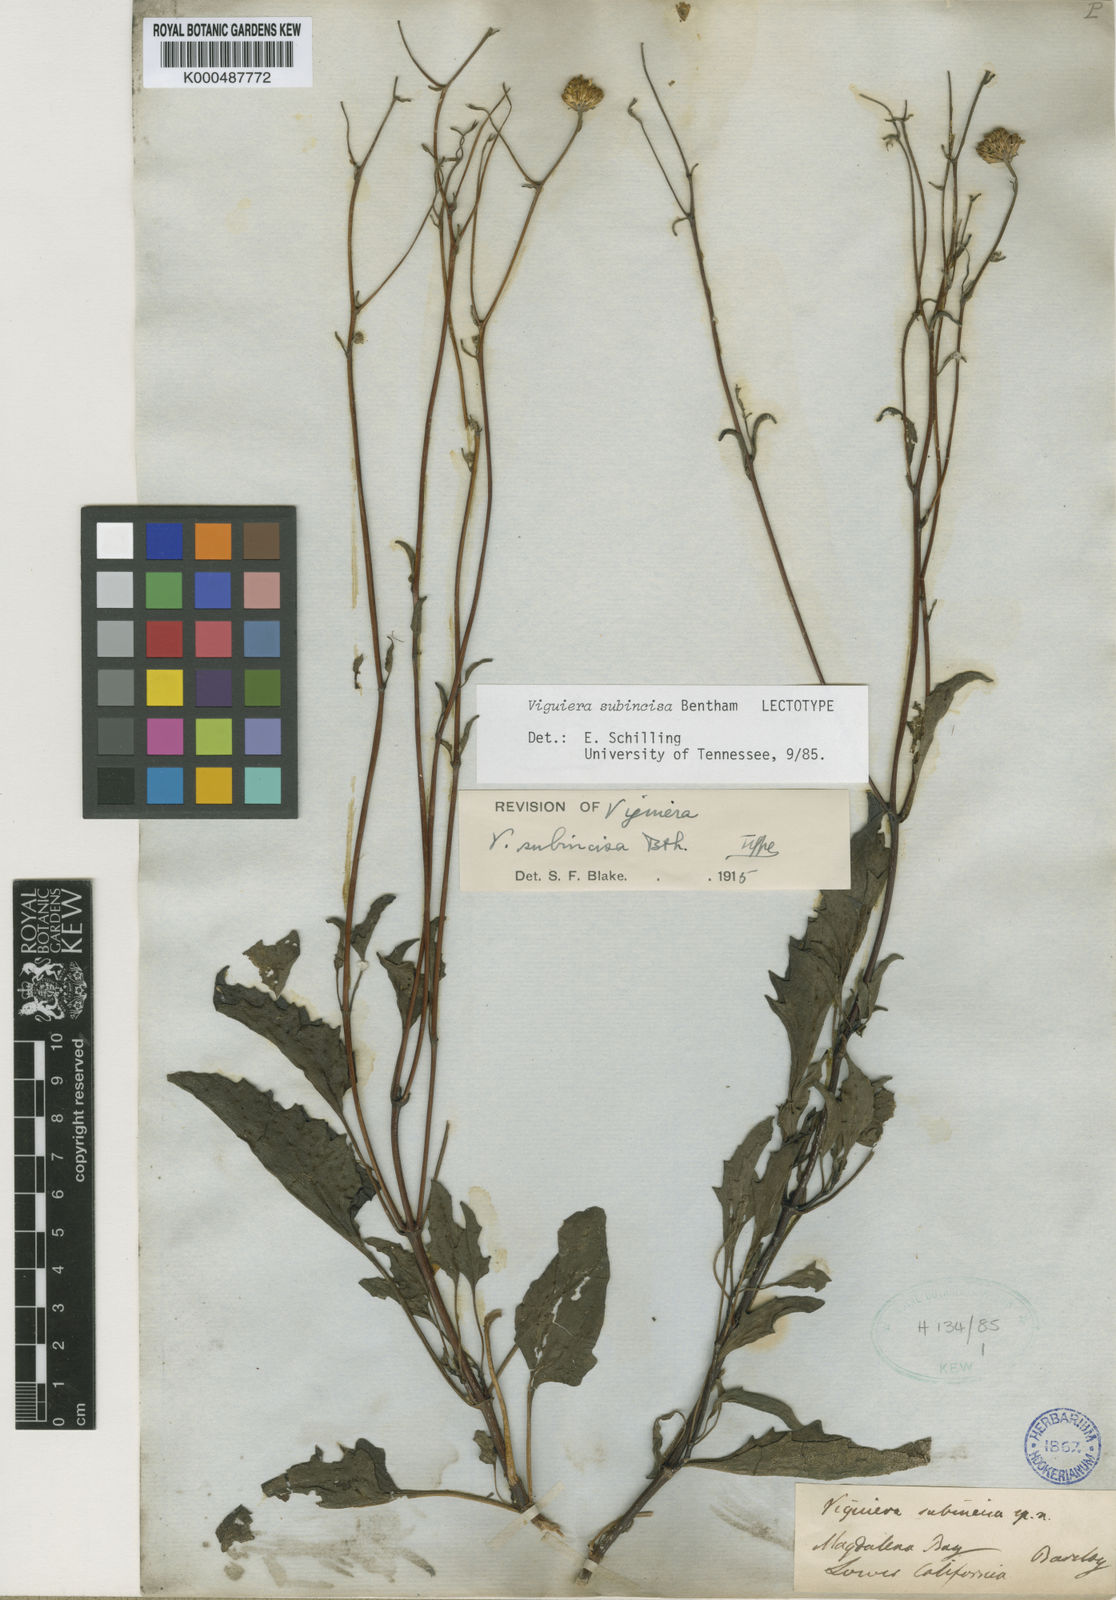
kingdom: Plantae
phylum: Tracheophyta
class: Magnoliopsida
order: Asterales
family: Asteraceae
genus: Bahiopsis
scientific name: Bahiopsis subincisa
